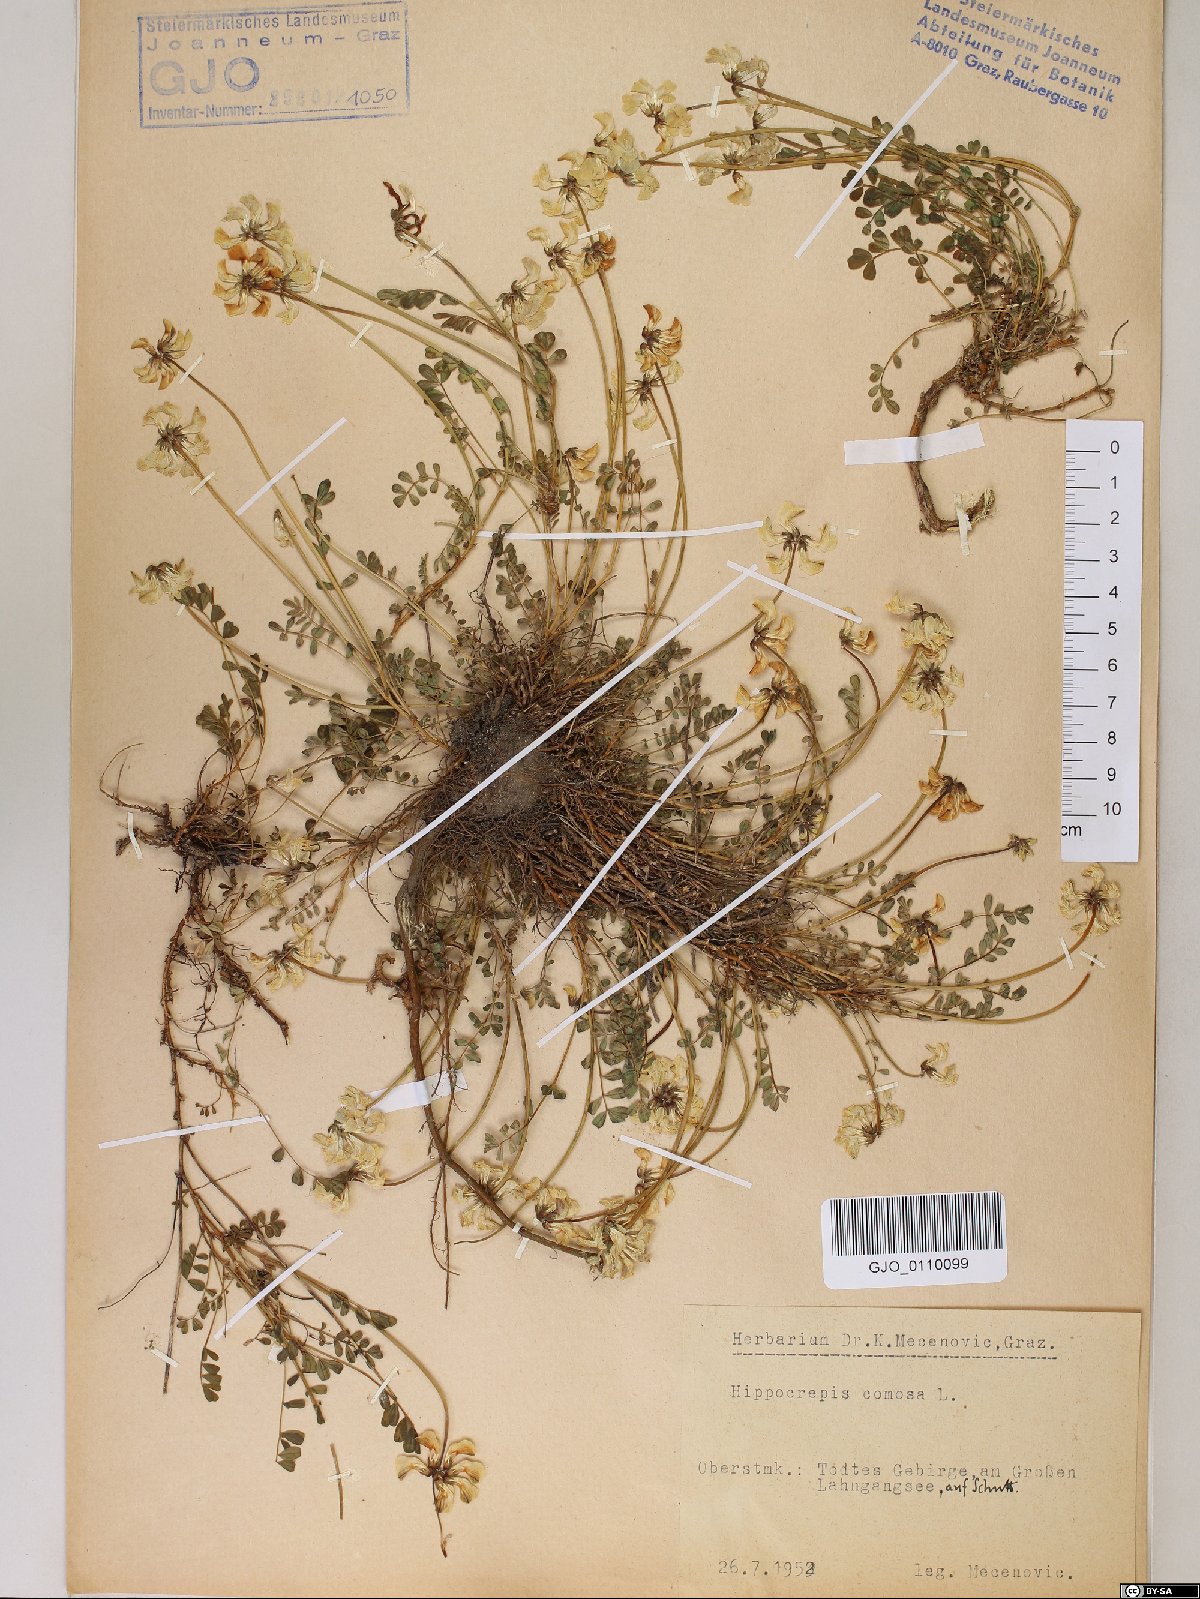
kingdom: Plantae
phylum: Tracheophyta
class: Magnoliopsida
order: Fabales
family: Fabaceae
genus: Hippocrepis
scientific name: Hippocrepis comosa
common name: Horseshoe vetch
